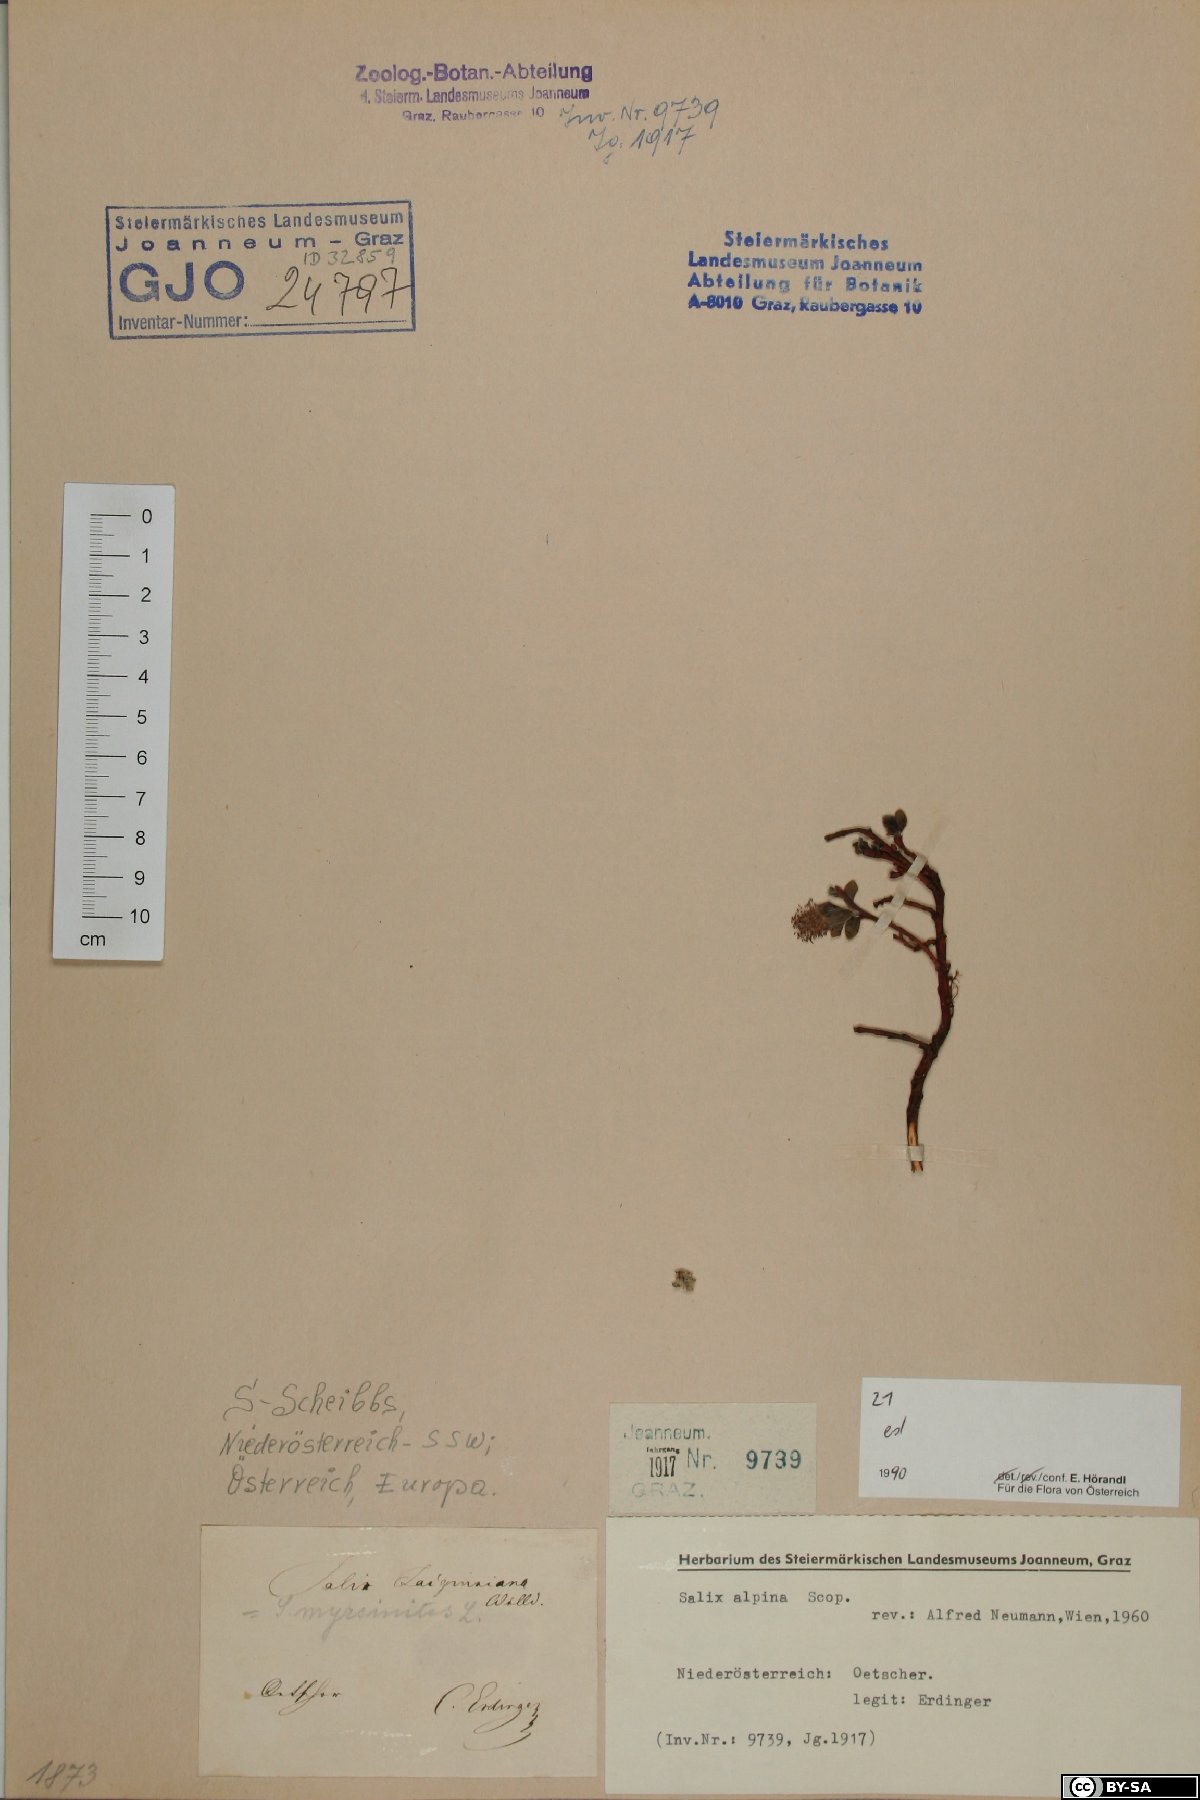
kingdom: Plantae
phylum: Tracheophyta
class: Magnoliopsida
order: Malpighiales
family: Salicaceae
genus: Salix
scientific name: Salix alpina
